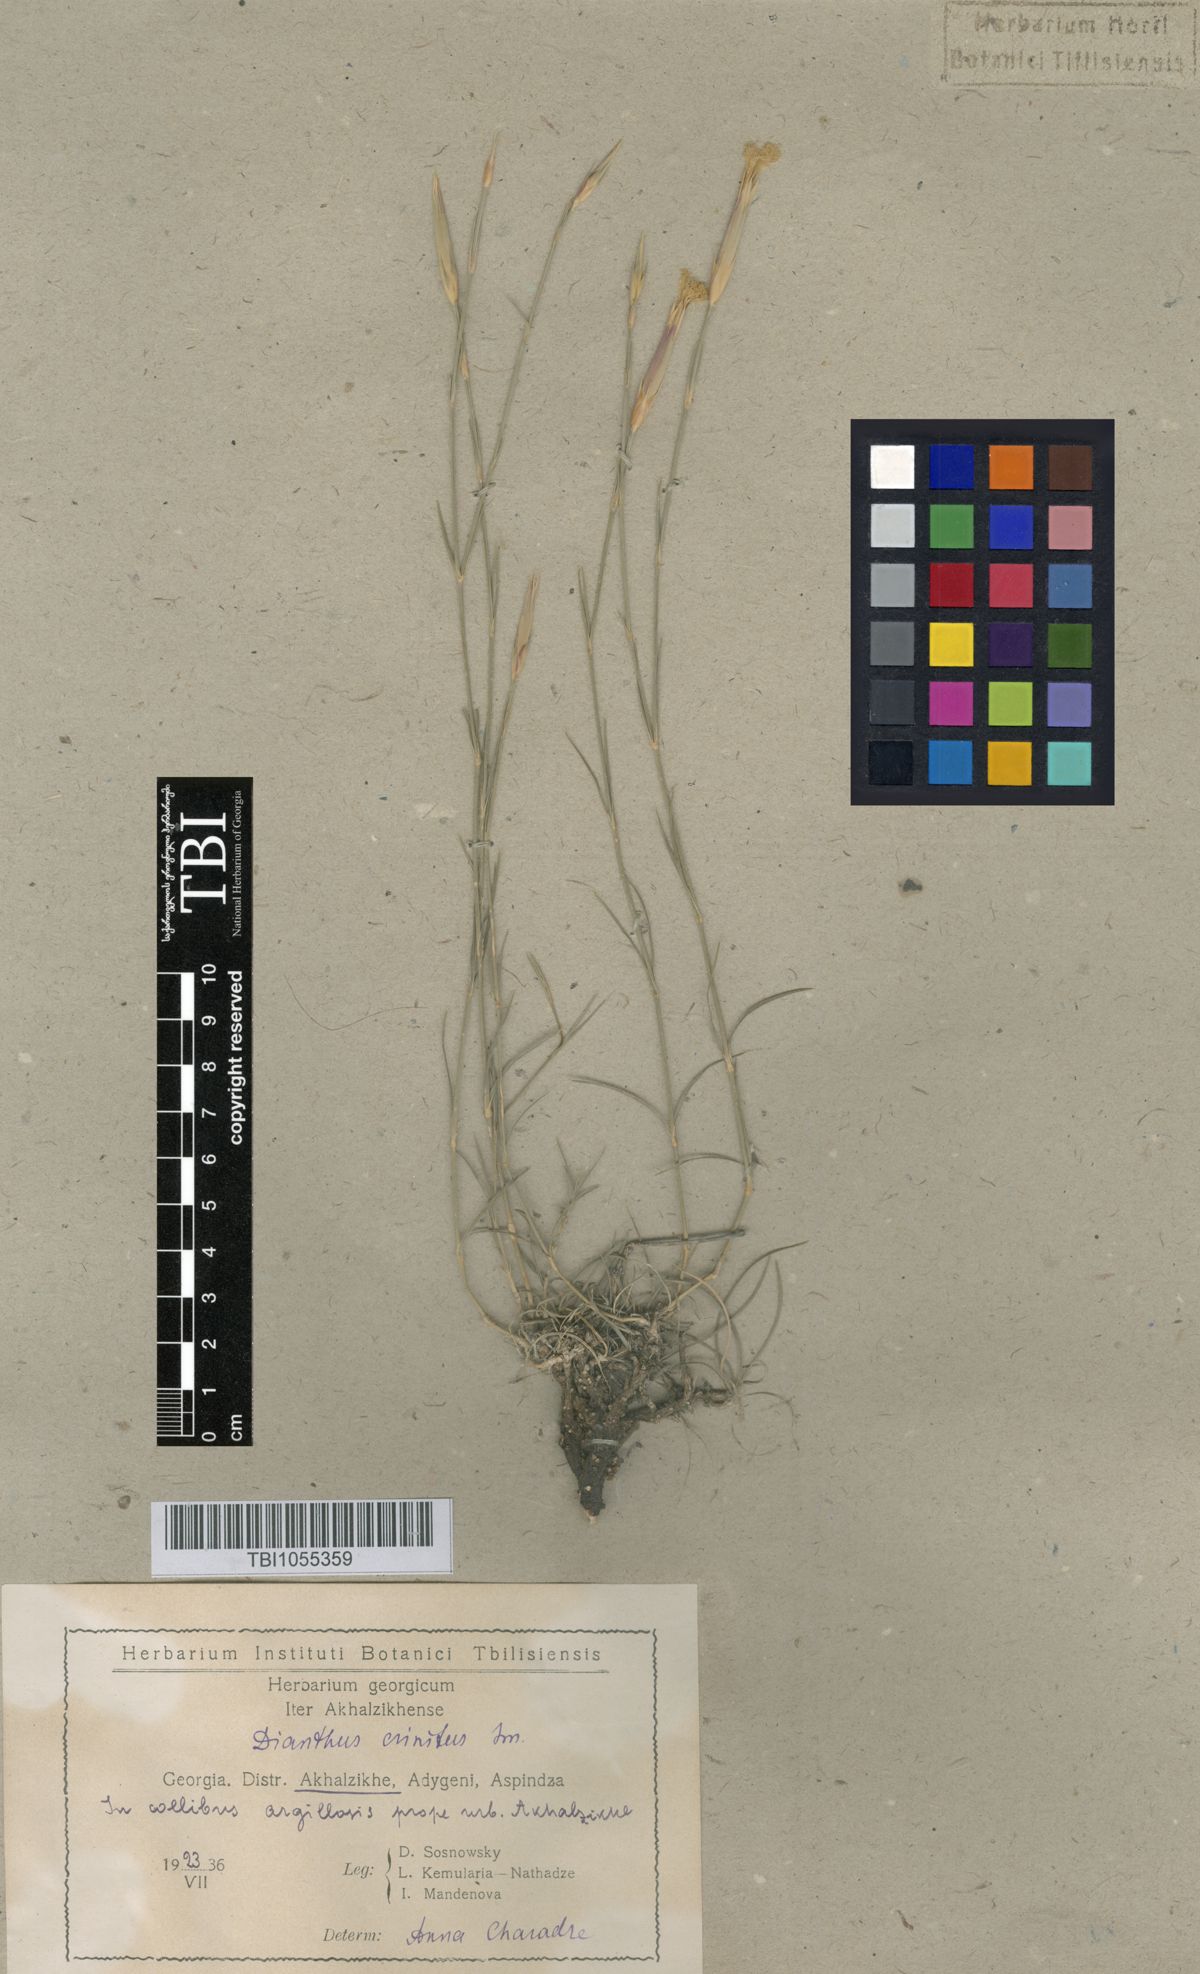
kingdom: Plantae
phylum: Tracheophyta
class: Magnoliopsida
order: Caryophyllales
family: Caryophyllaceae
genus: Dianthus
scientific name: Dianthus crinitus
